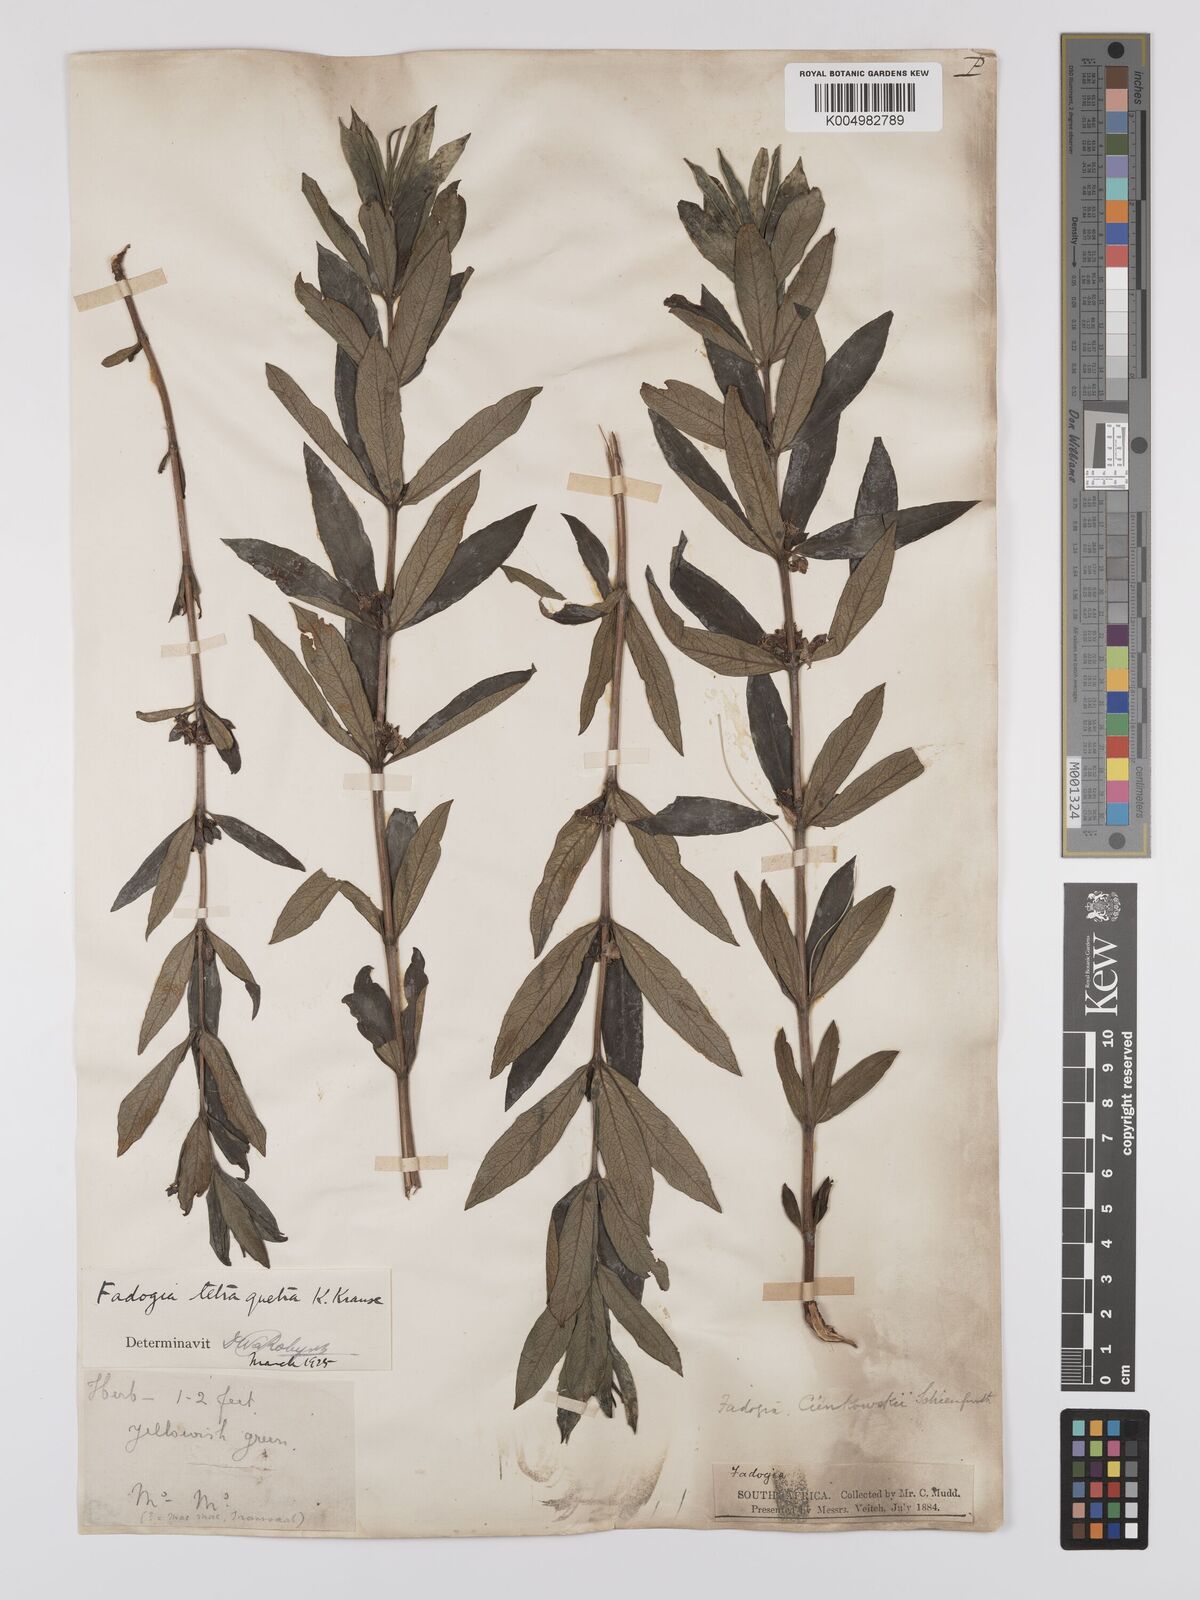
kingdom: Plantae
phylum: Tracheophyta
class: Magnoliopsida
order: Gentianales
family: Rubiaceae
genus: Fadogia
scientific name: Fadogia tetraquetra
